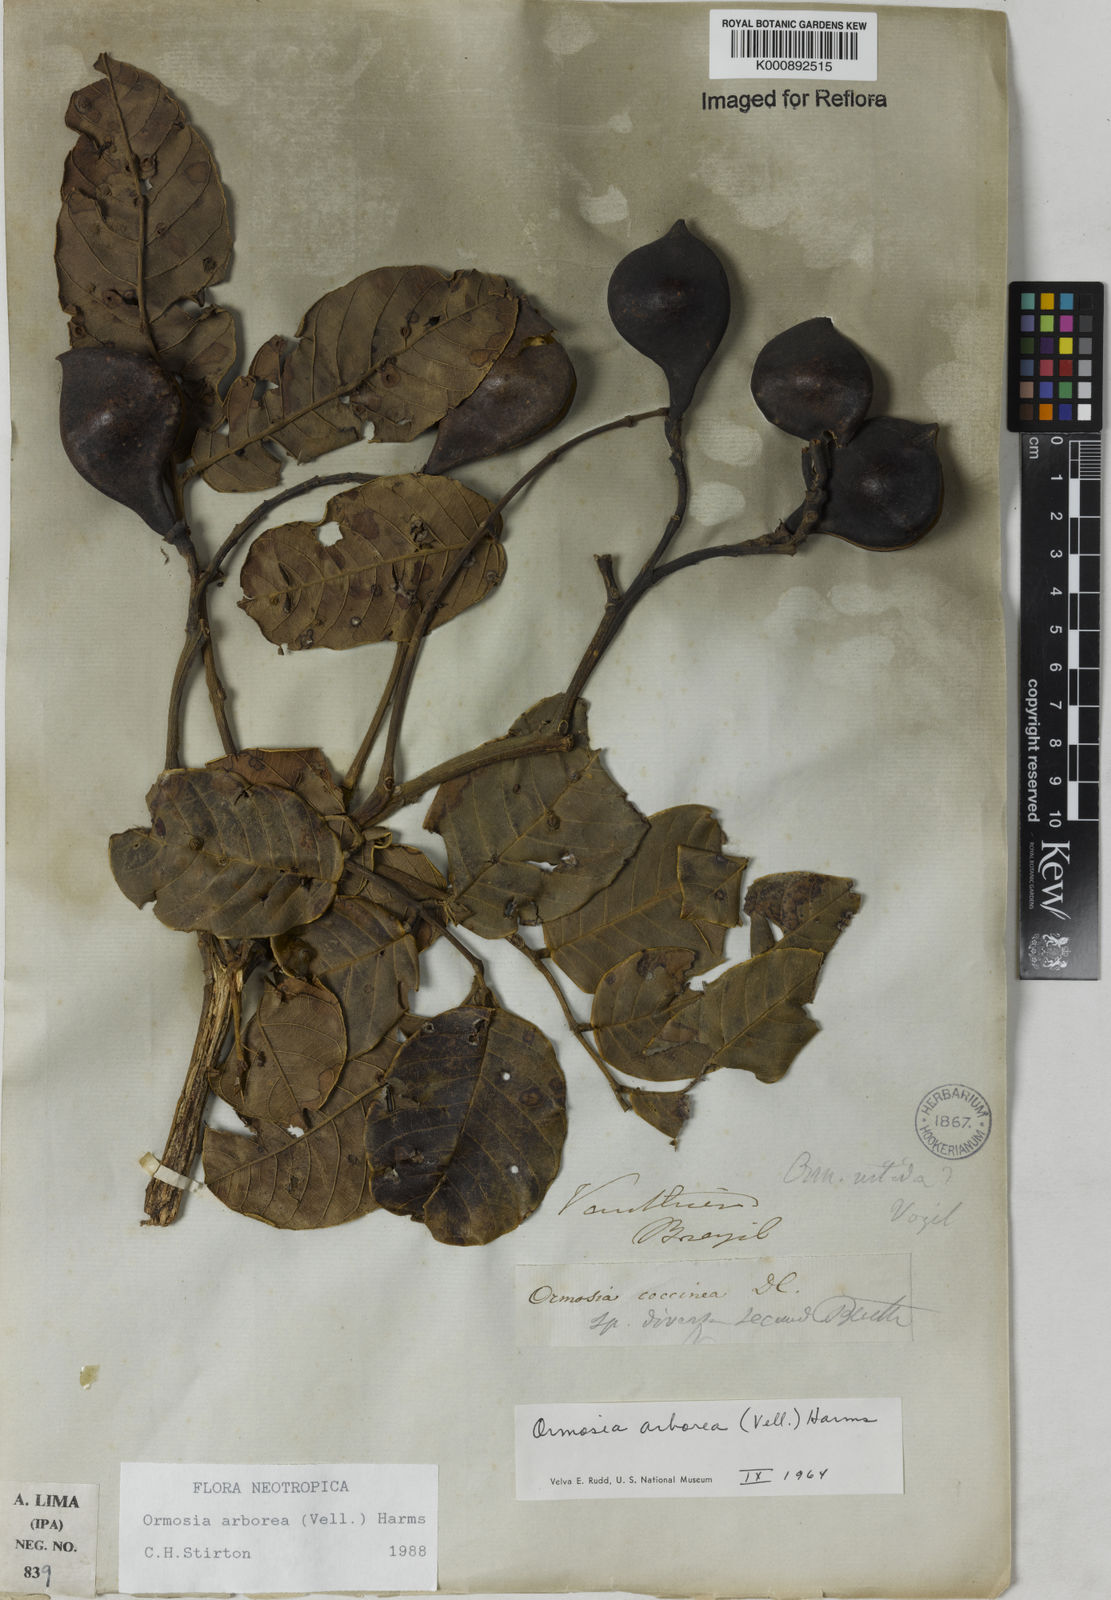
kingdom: Plantae
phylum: Tracheophyta
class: Magnoliopsida
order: Fabales
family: Fabaceae
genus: Ormosia
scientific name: Ormosia arborea
